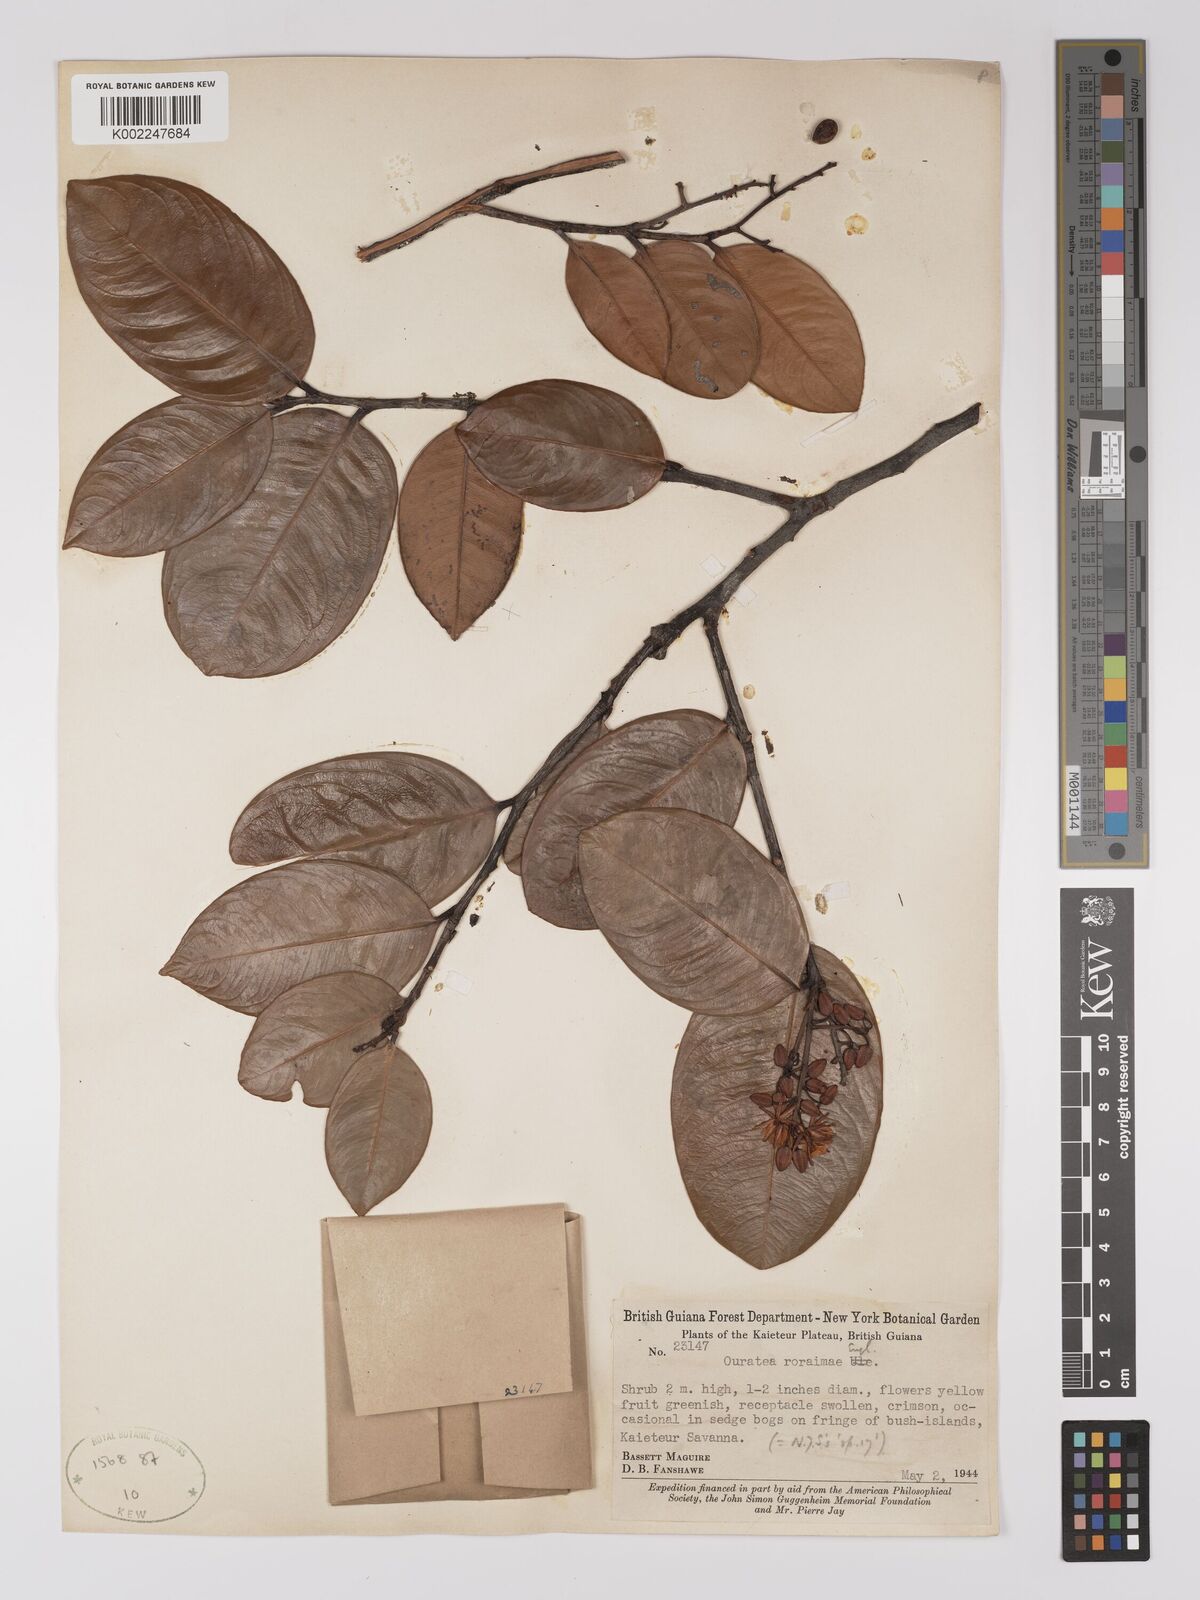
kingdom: Plantae
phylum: Tracheophyta
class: Magnoliopsida
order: Malpighiales
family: Ochnaceae
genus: Ouratea
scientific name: Ouratea roraimae
